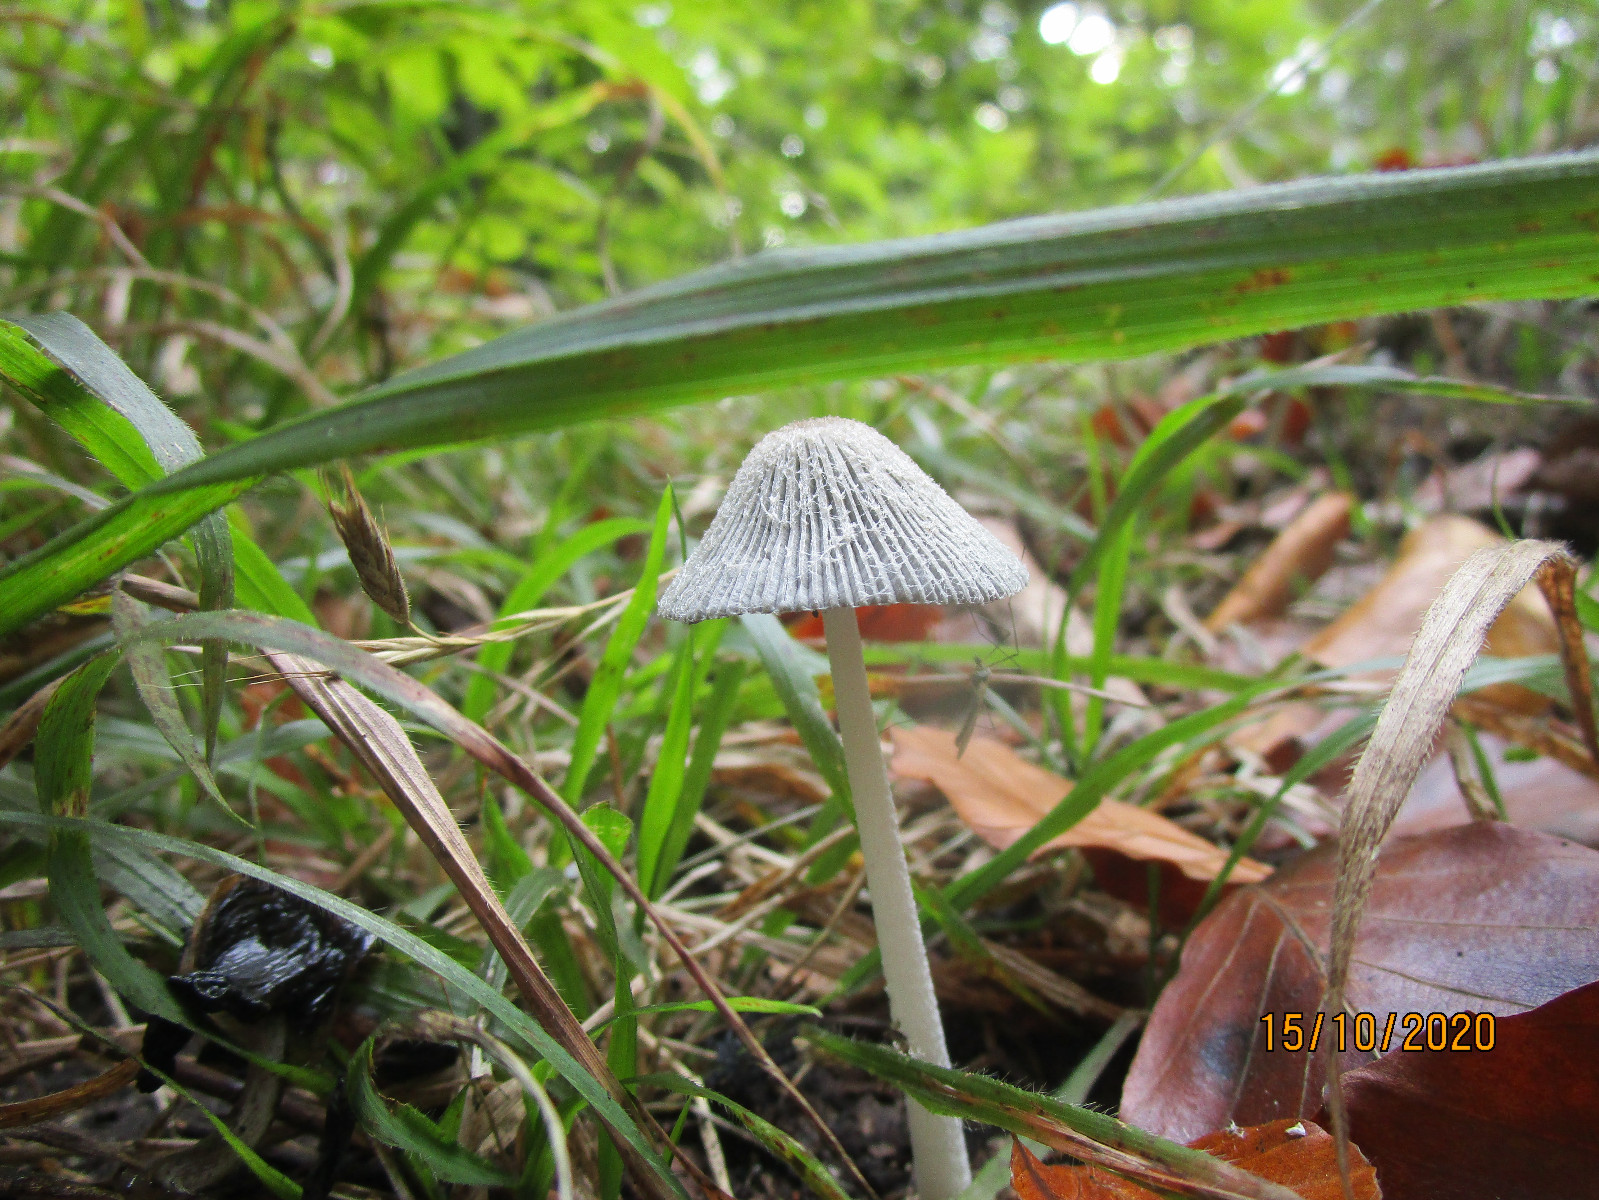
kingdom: Fungi
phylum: Basidiomycota
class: Agaricomycetes
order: Agaricales
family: Psathyrellaceae
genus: Coprinopsis
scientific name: Coprinopsis lagopus
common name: dunstokket blækhat
